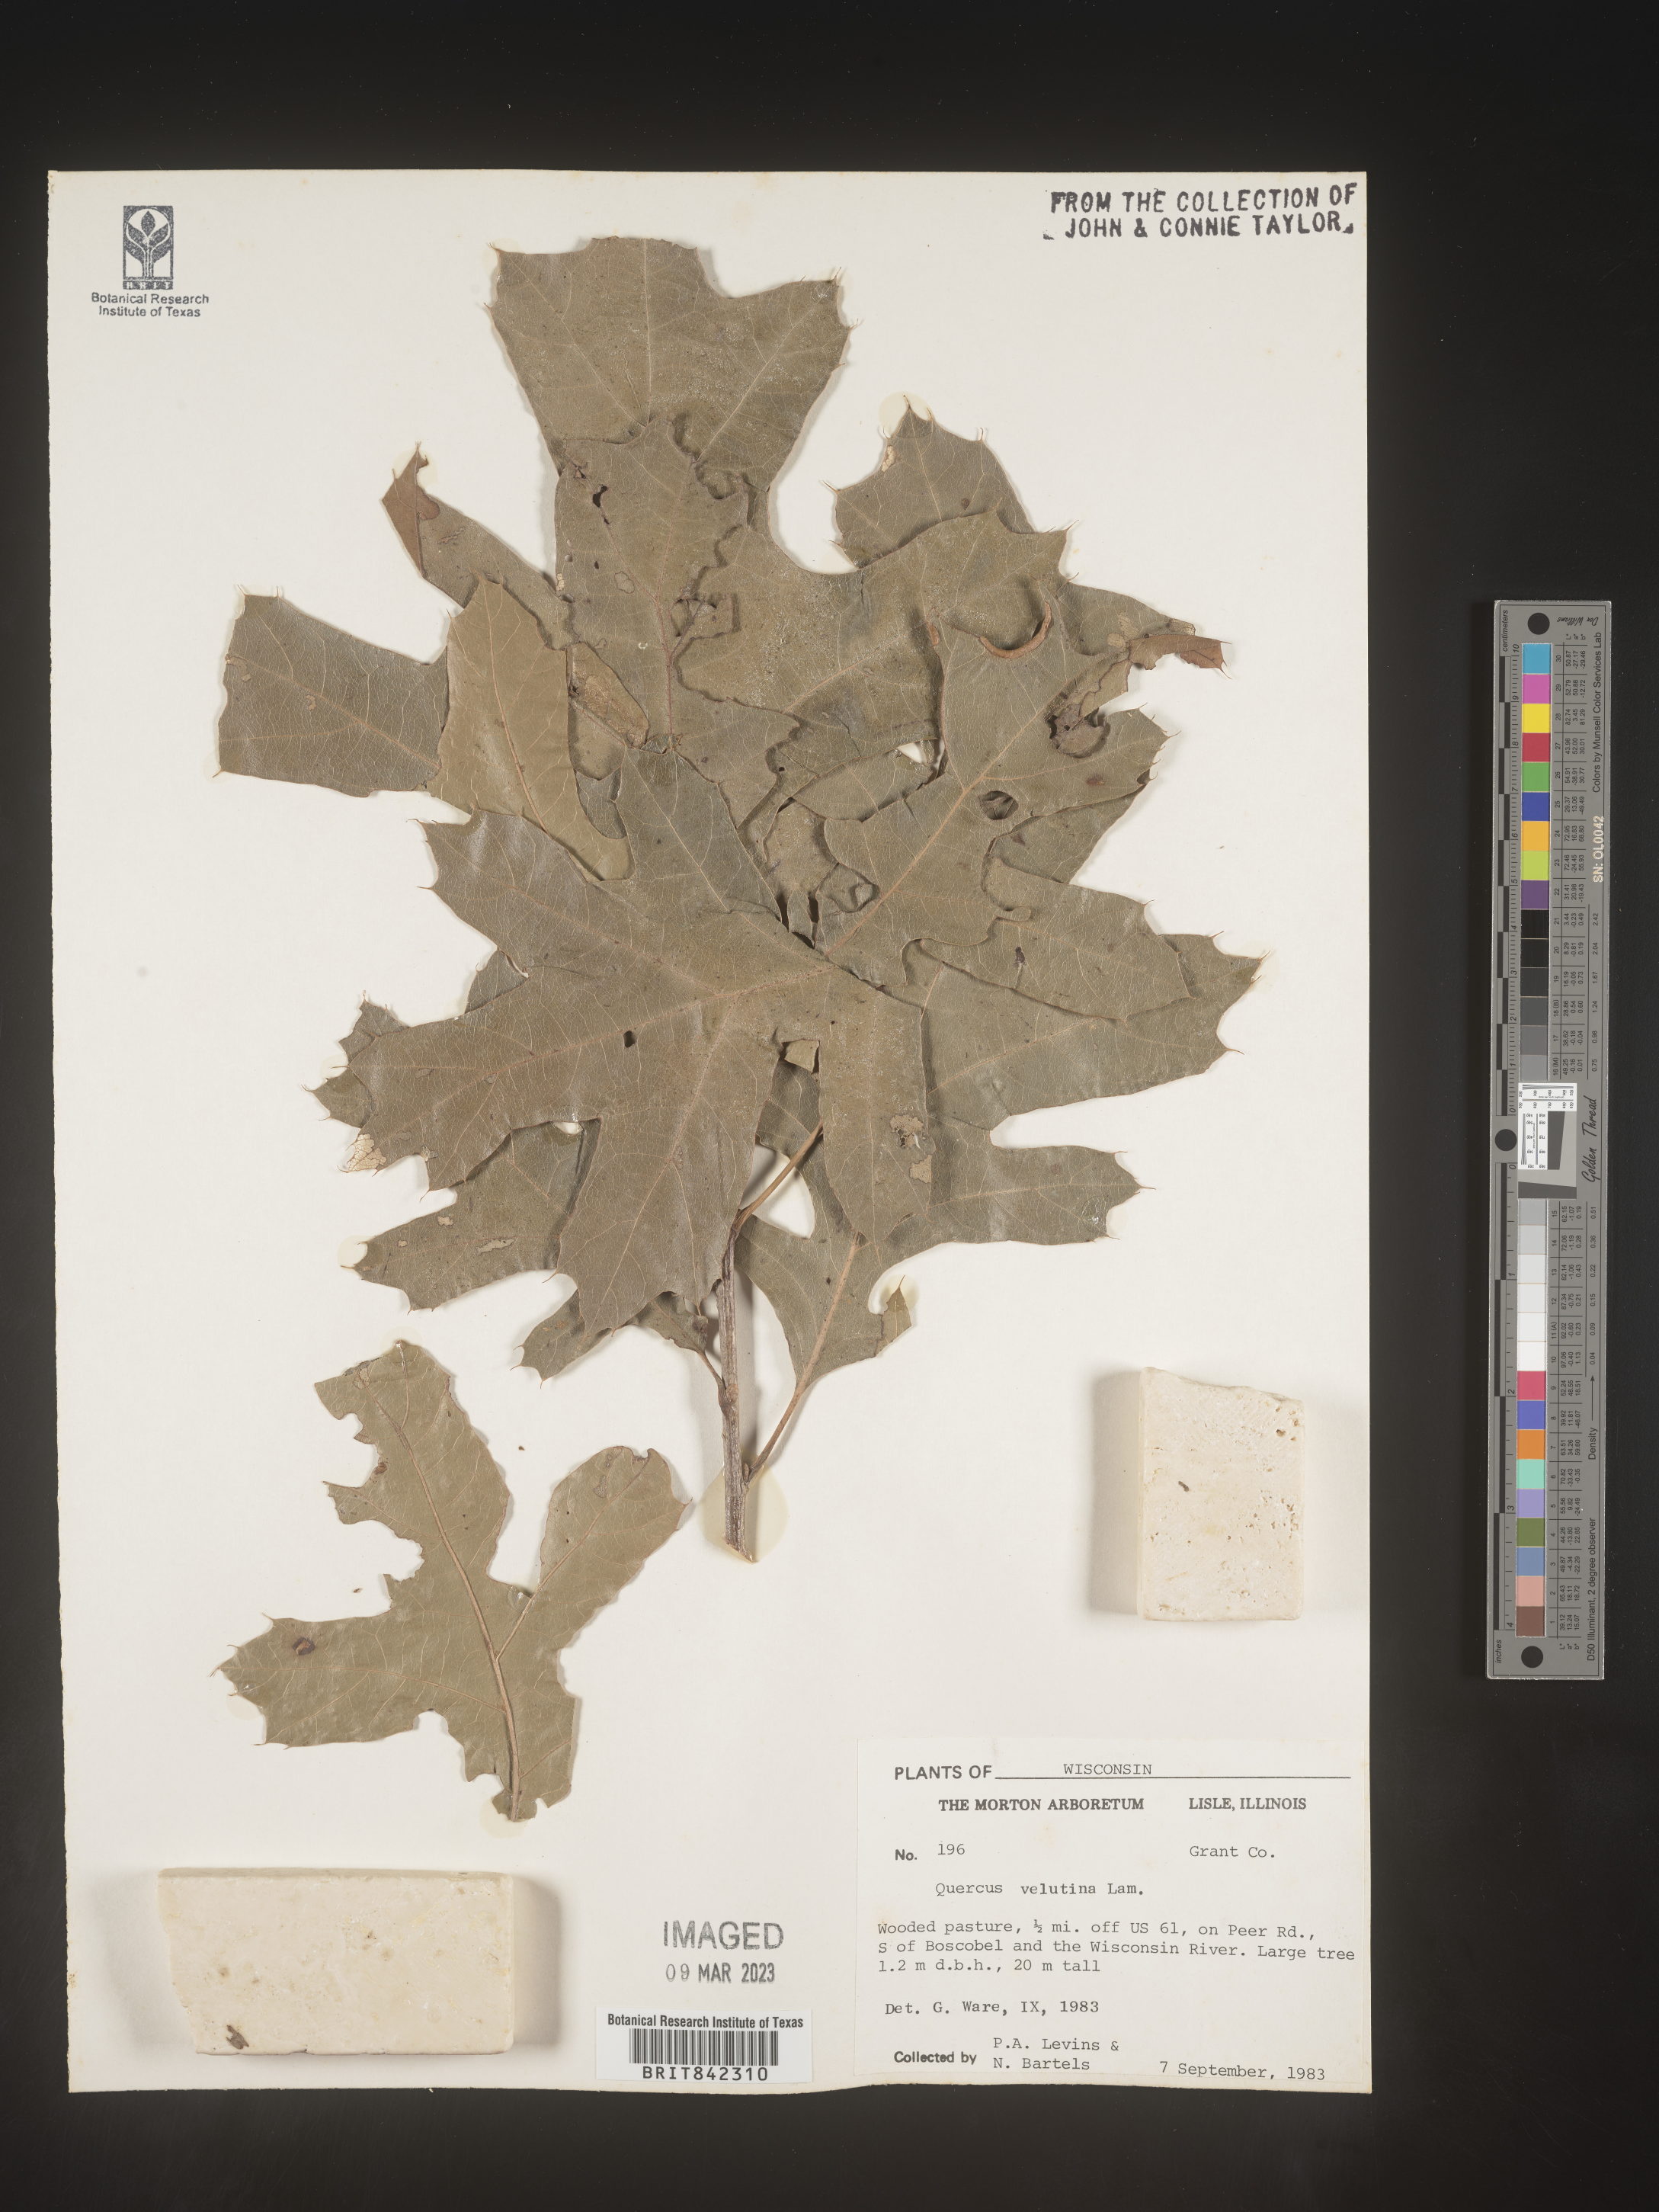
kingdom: Plantae
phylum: Tracheophyta
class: Magnoliopsida
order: Fagales
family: Fagaceae
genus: Quercus
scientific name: Quercus velutina
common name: Black oak
